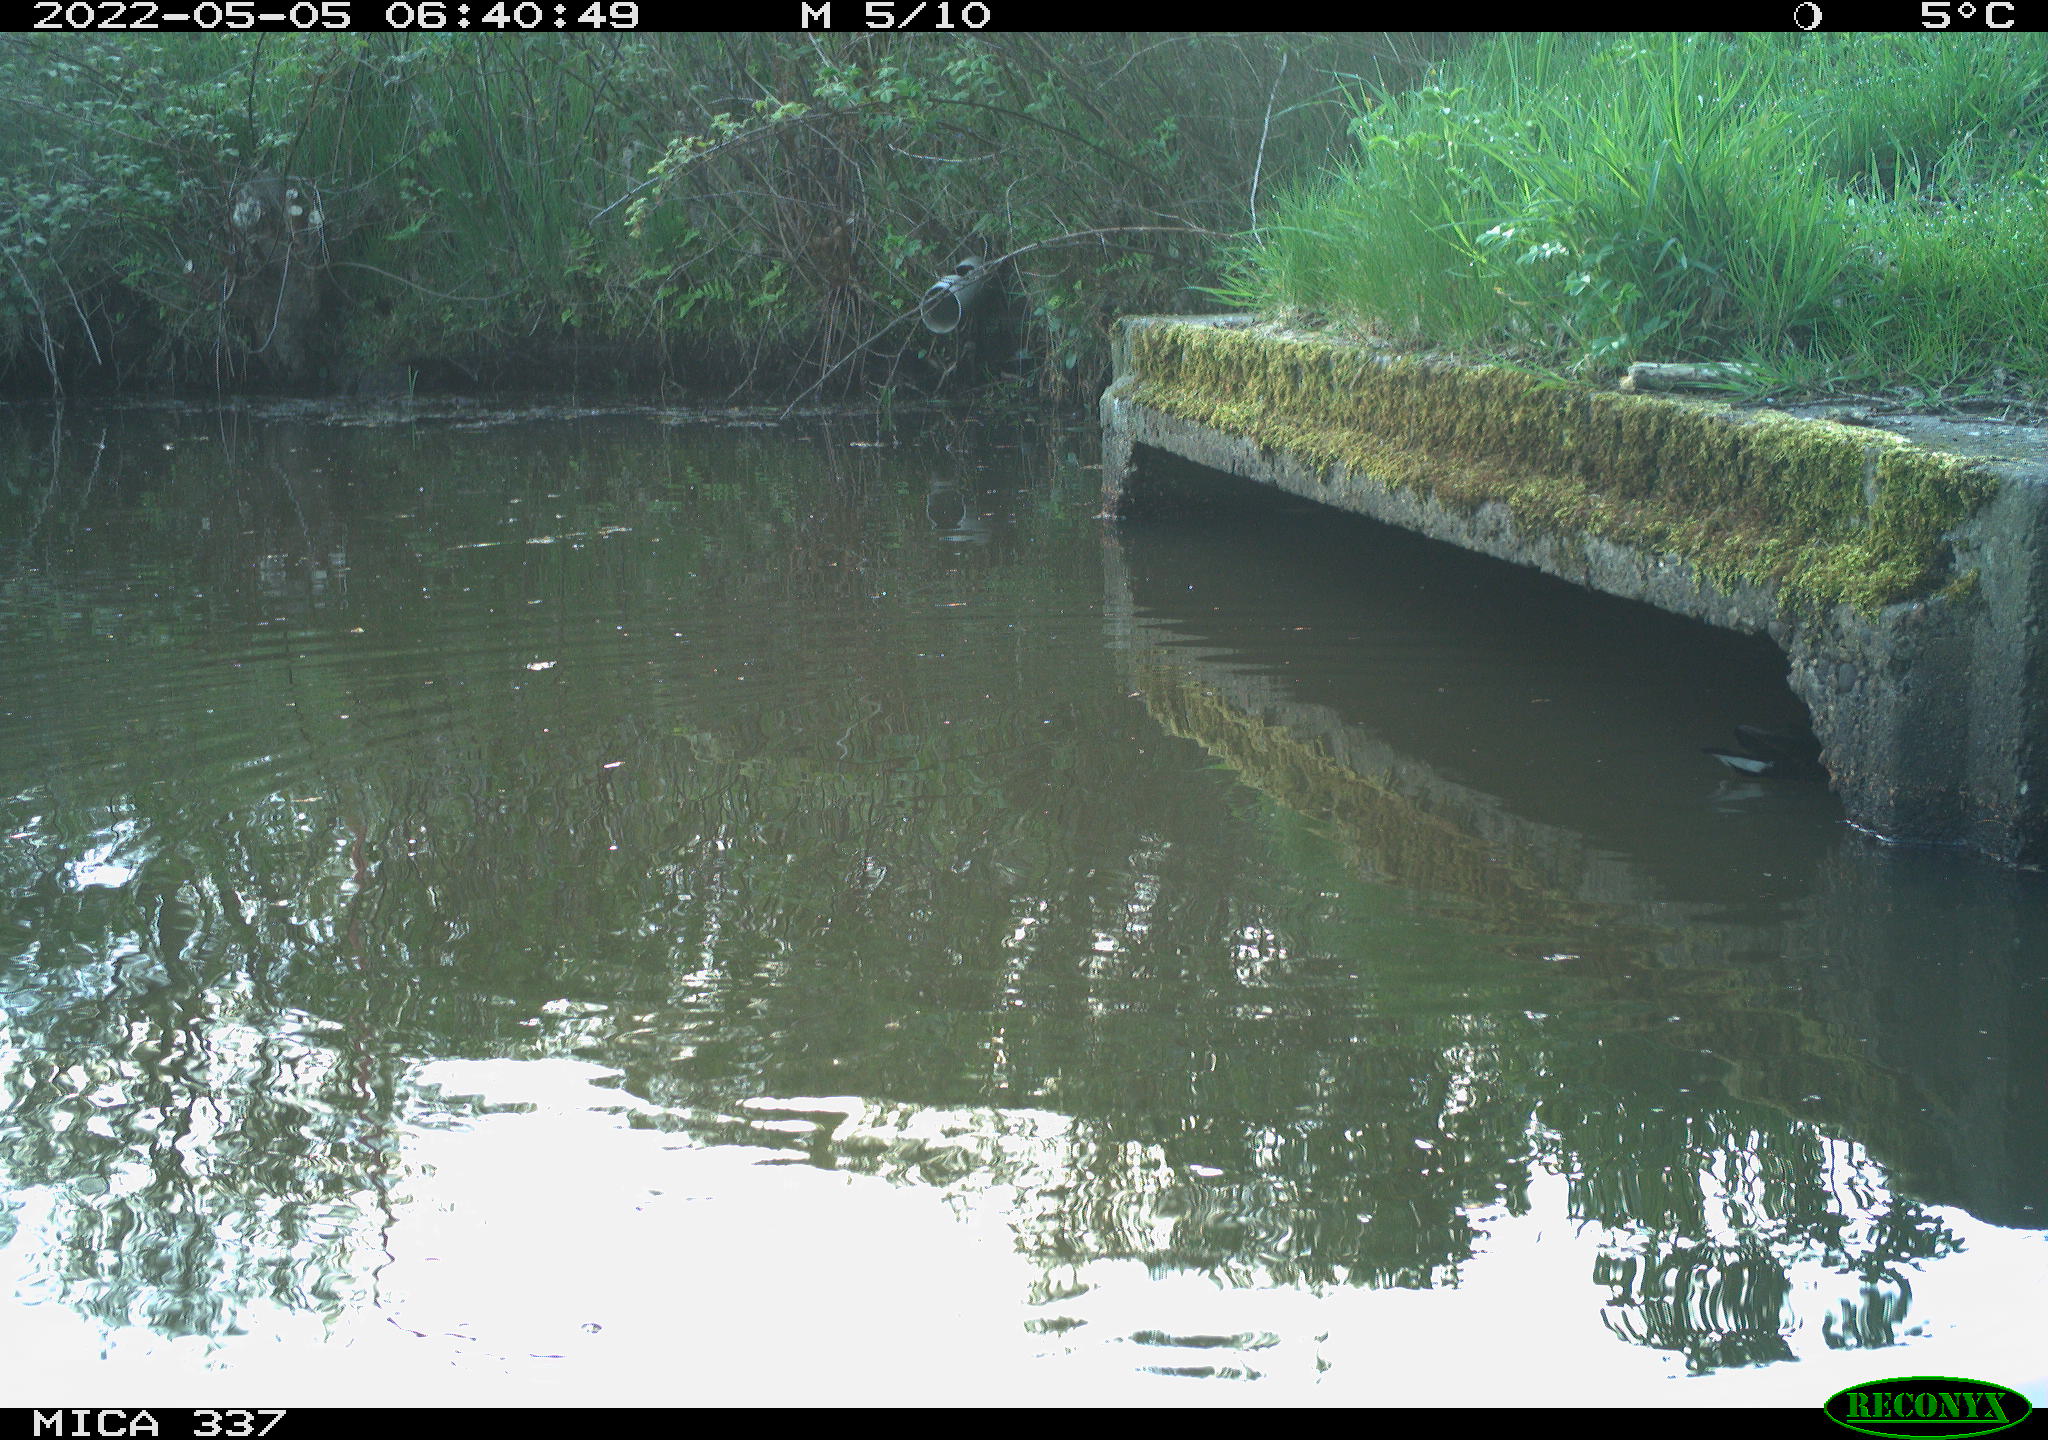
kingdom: Animalia
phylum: Chordata
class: Aves
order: Gruiformes
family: Rallidae
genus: Gallinula
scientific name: Gallinula chloropus
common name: Common moorhen
